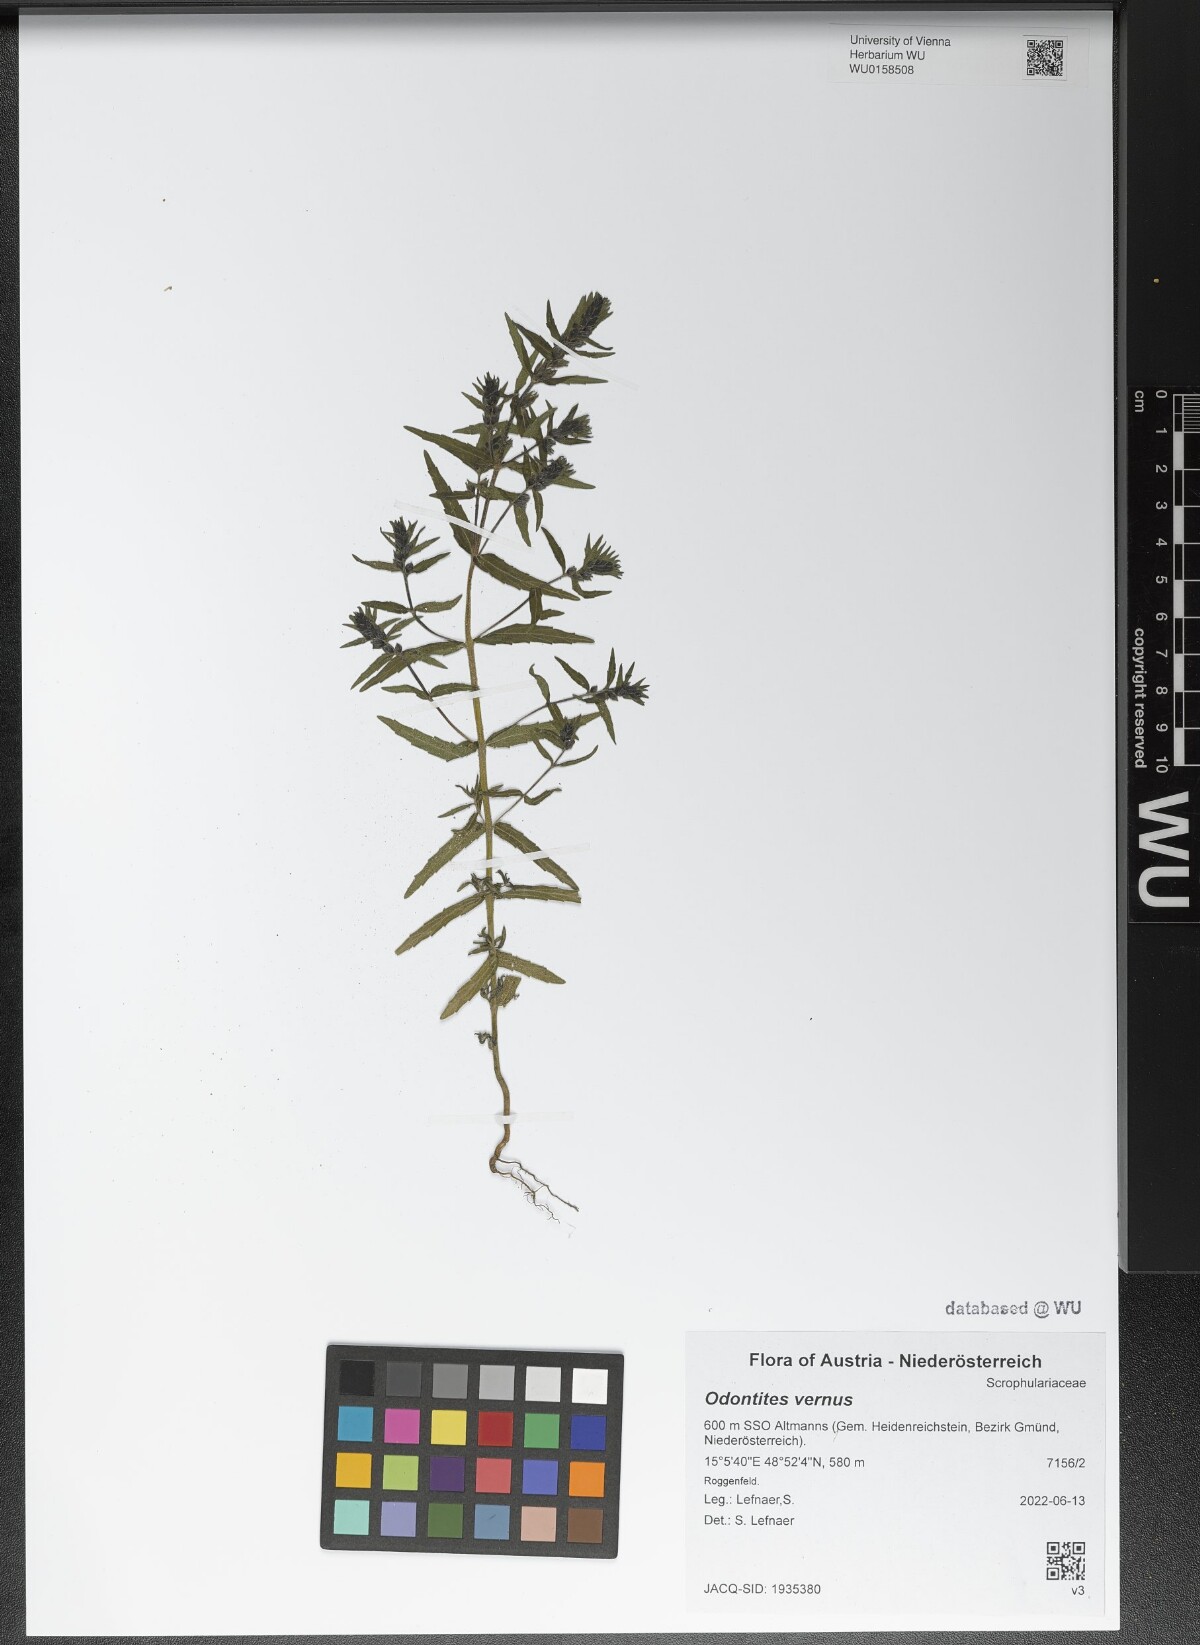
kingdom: Plantae
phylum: Tracheophyta
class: Magnoliopsida
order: Lamiales
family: Orobanchaceae
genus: Odontites
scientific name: Odontites vernus
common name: Red bartsia
